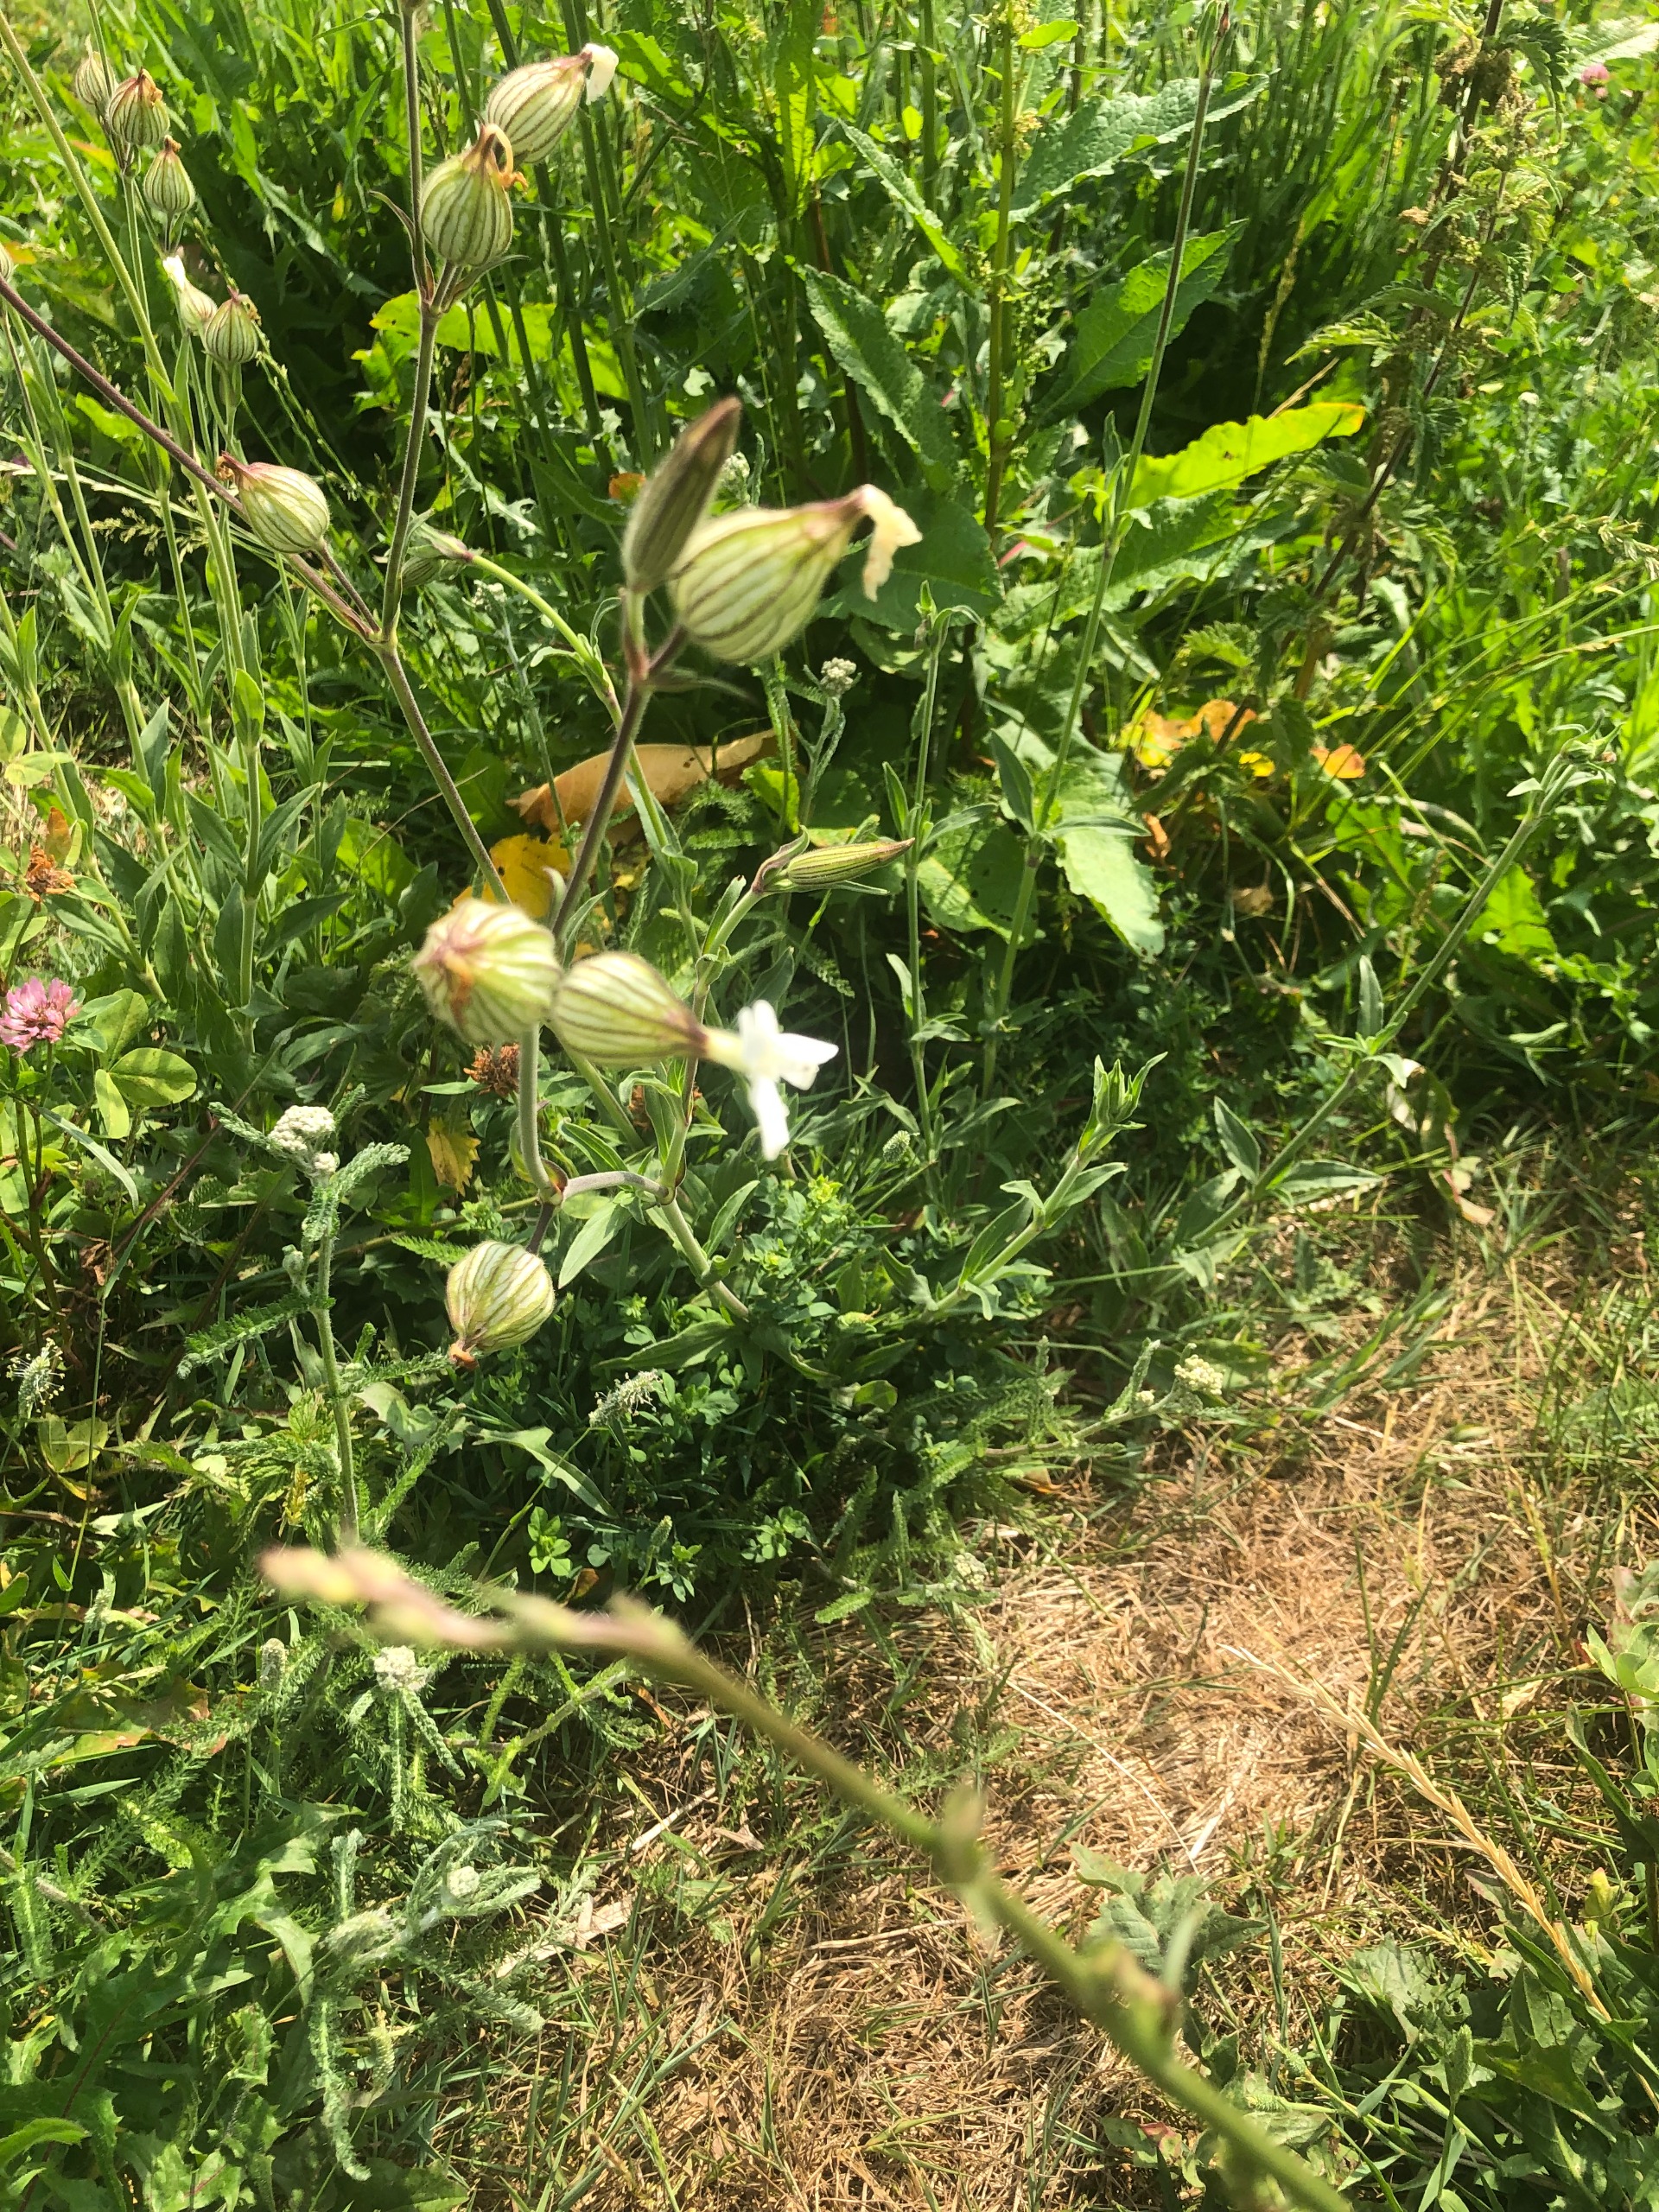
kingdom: Plantae
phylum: Tracheophyta
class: Magnoliopsida
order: Caryophyllales
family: Caryophyllaceae
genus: Silene
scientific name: Silene latifolia
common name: Aftenpragtstjerne
